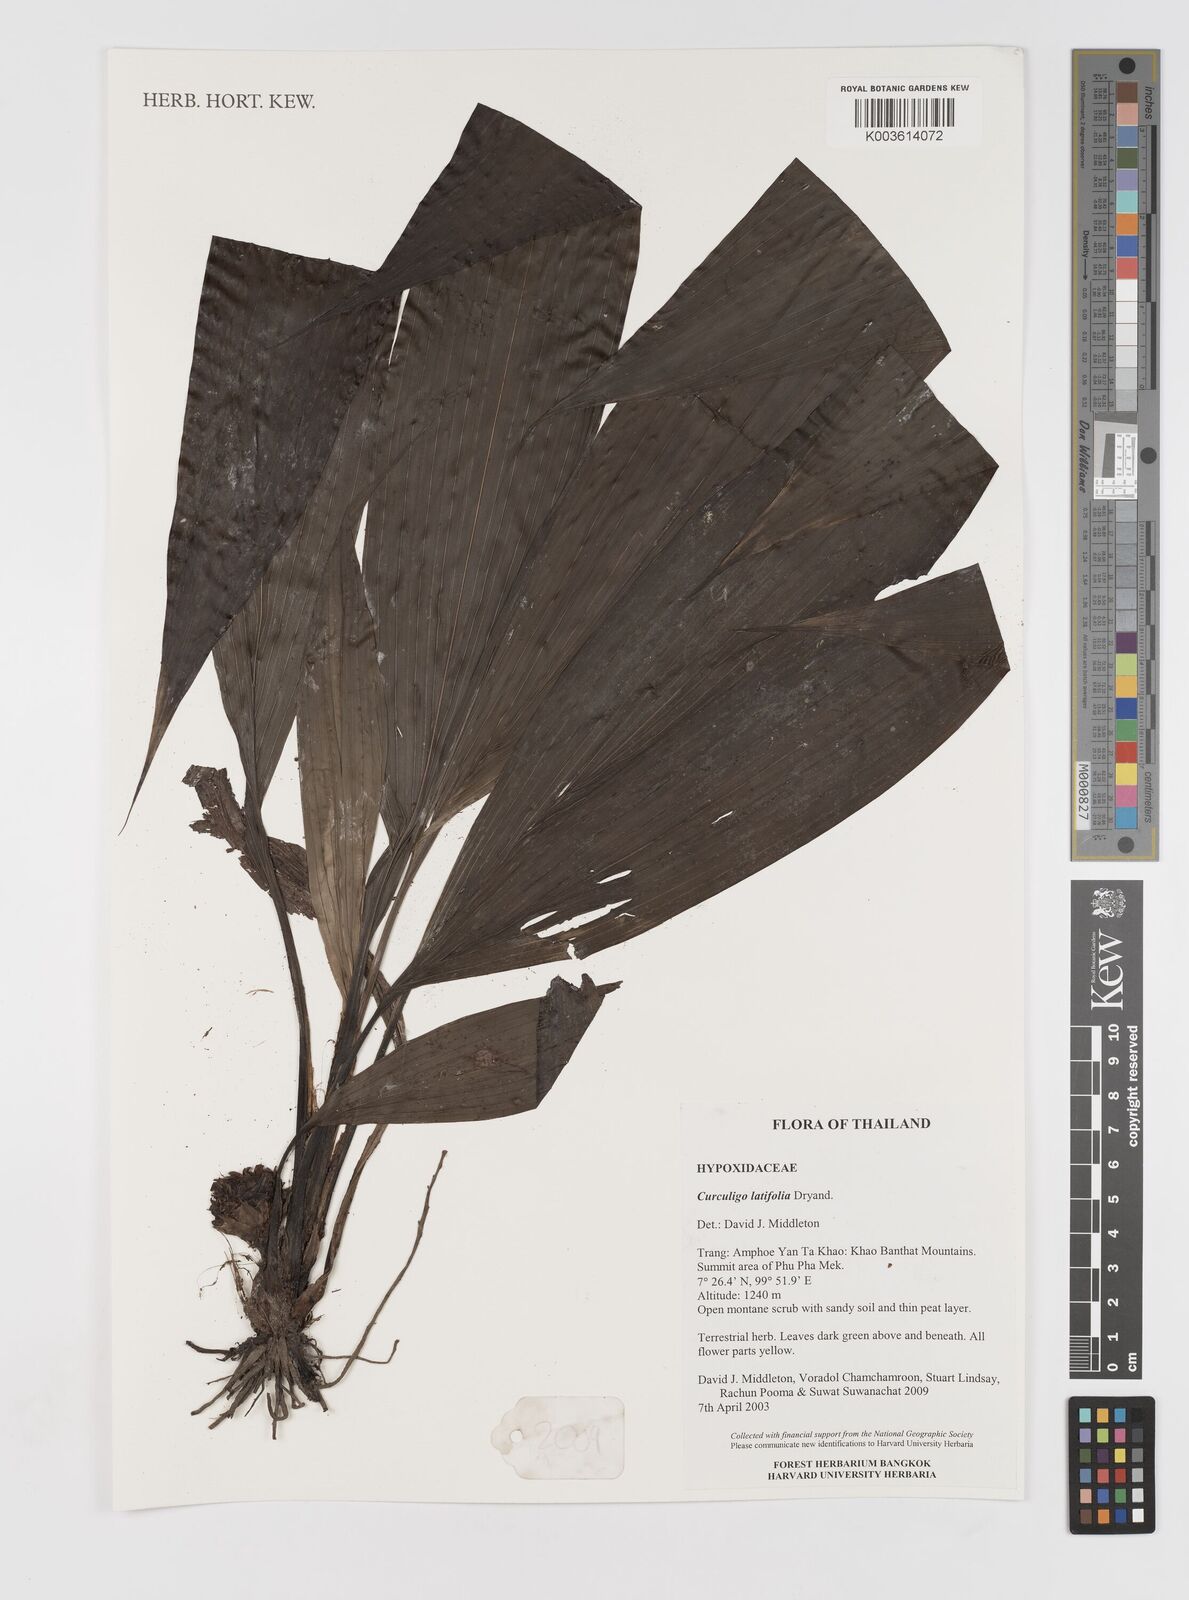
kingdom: Plantae
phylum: Tracheophyta
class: Liliopsida
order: Asparagales
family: Hypoxidaceae
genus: Curculigo
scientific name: Curculigo latifolia
